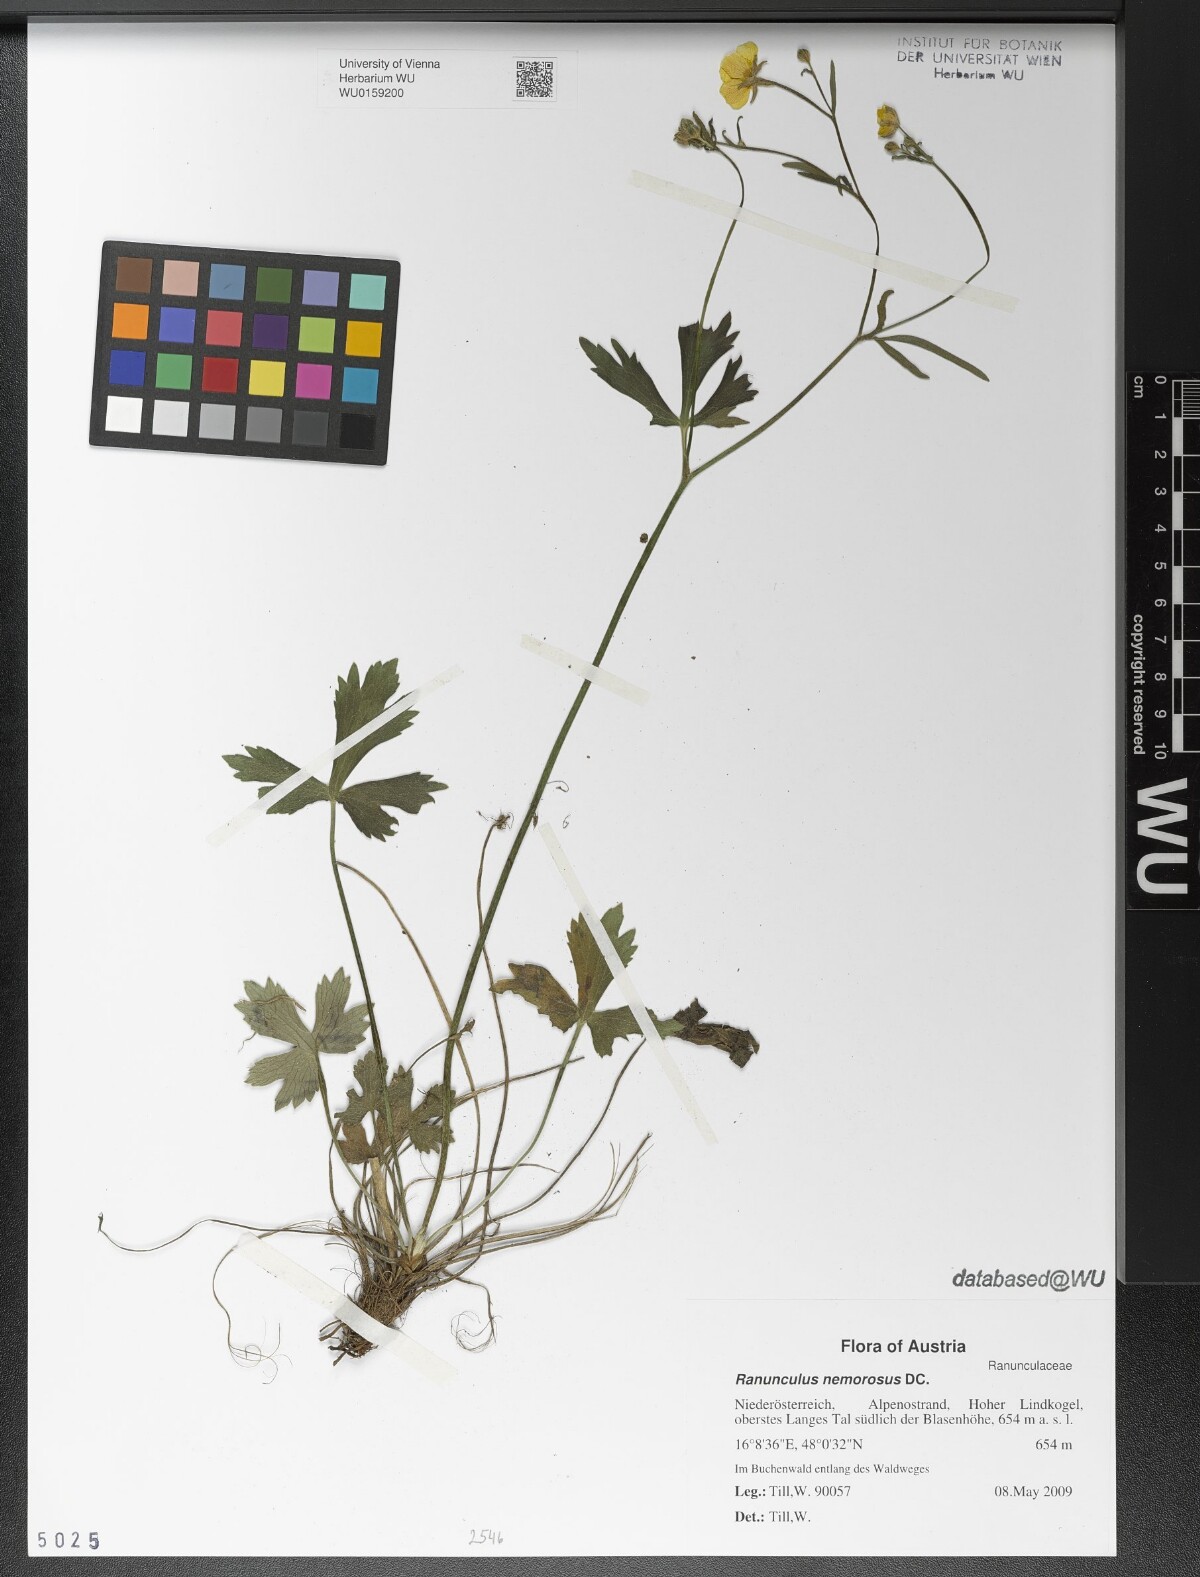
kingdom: Plantae
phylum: Tracheophyta
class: Magnoliopsida
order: Ranunculales
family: Ranunculaceae
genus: Ranunculus
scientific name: Ranunculus polyanthemos
